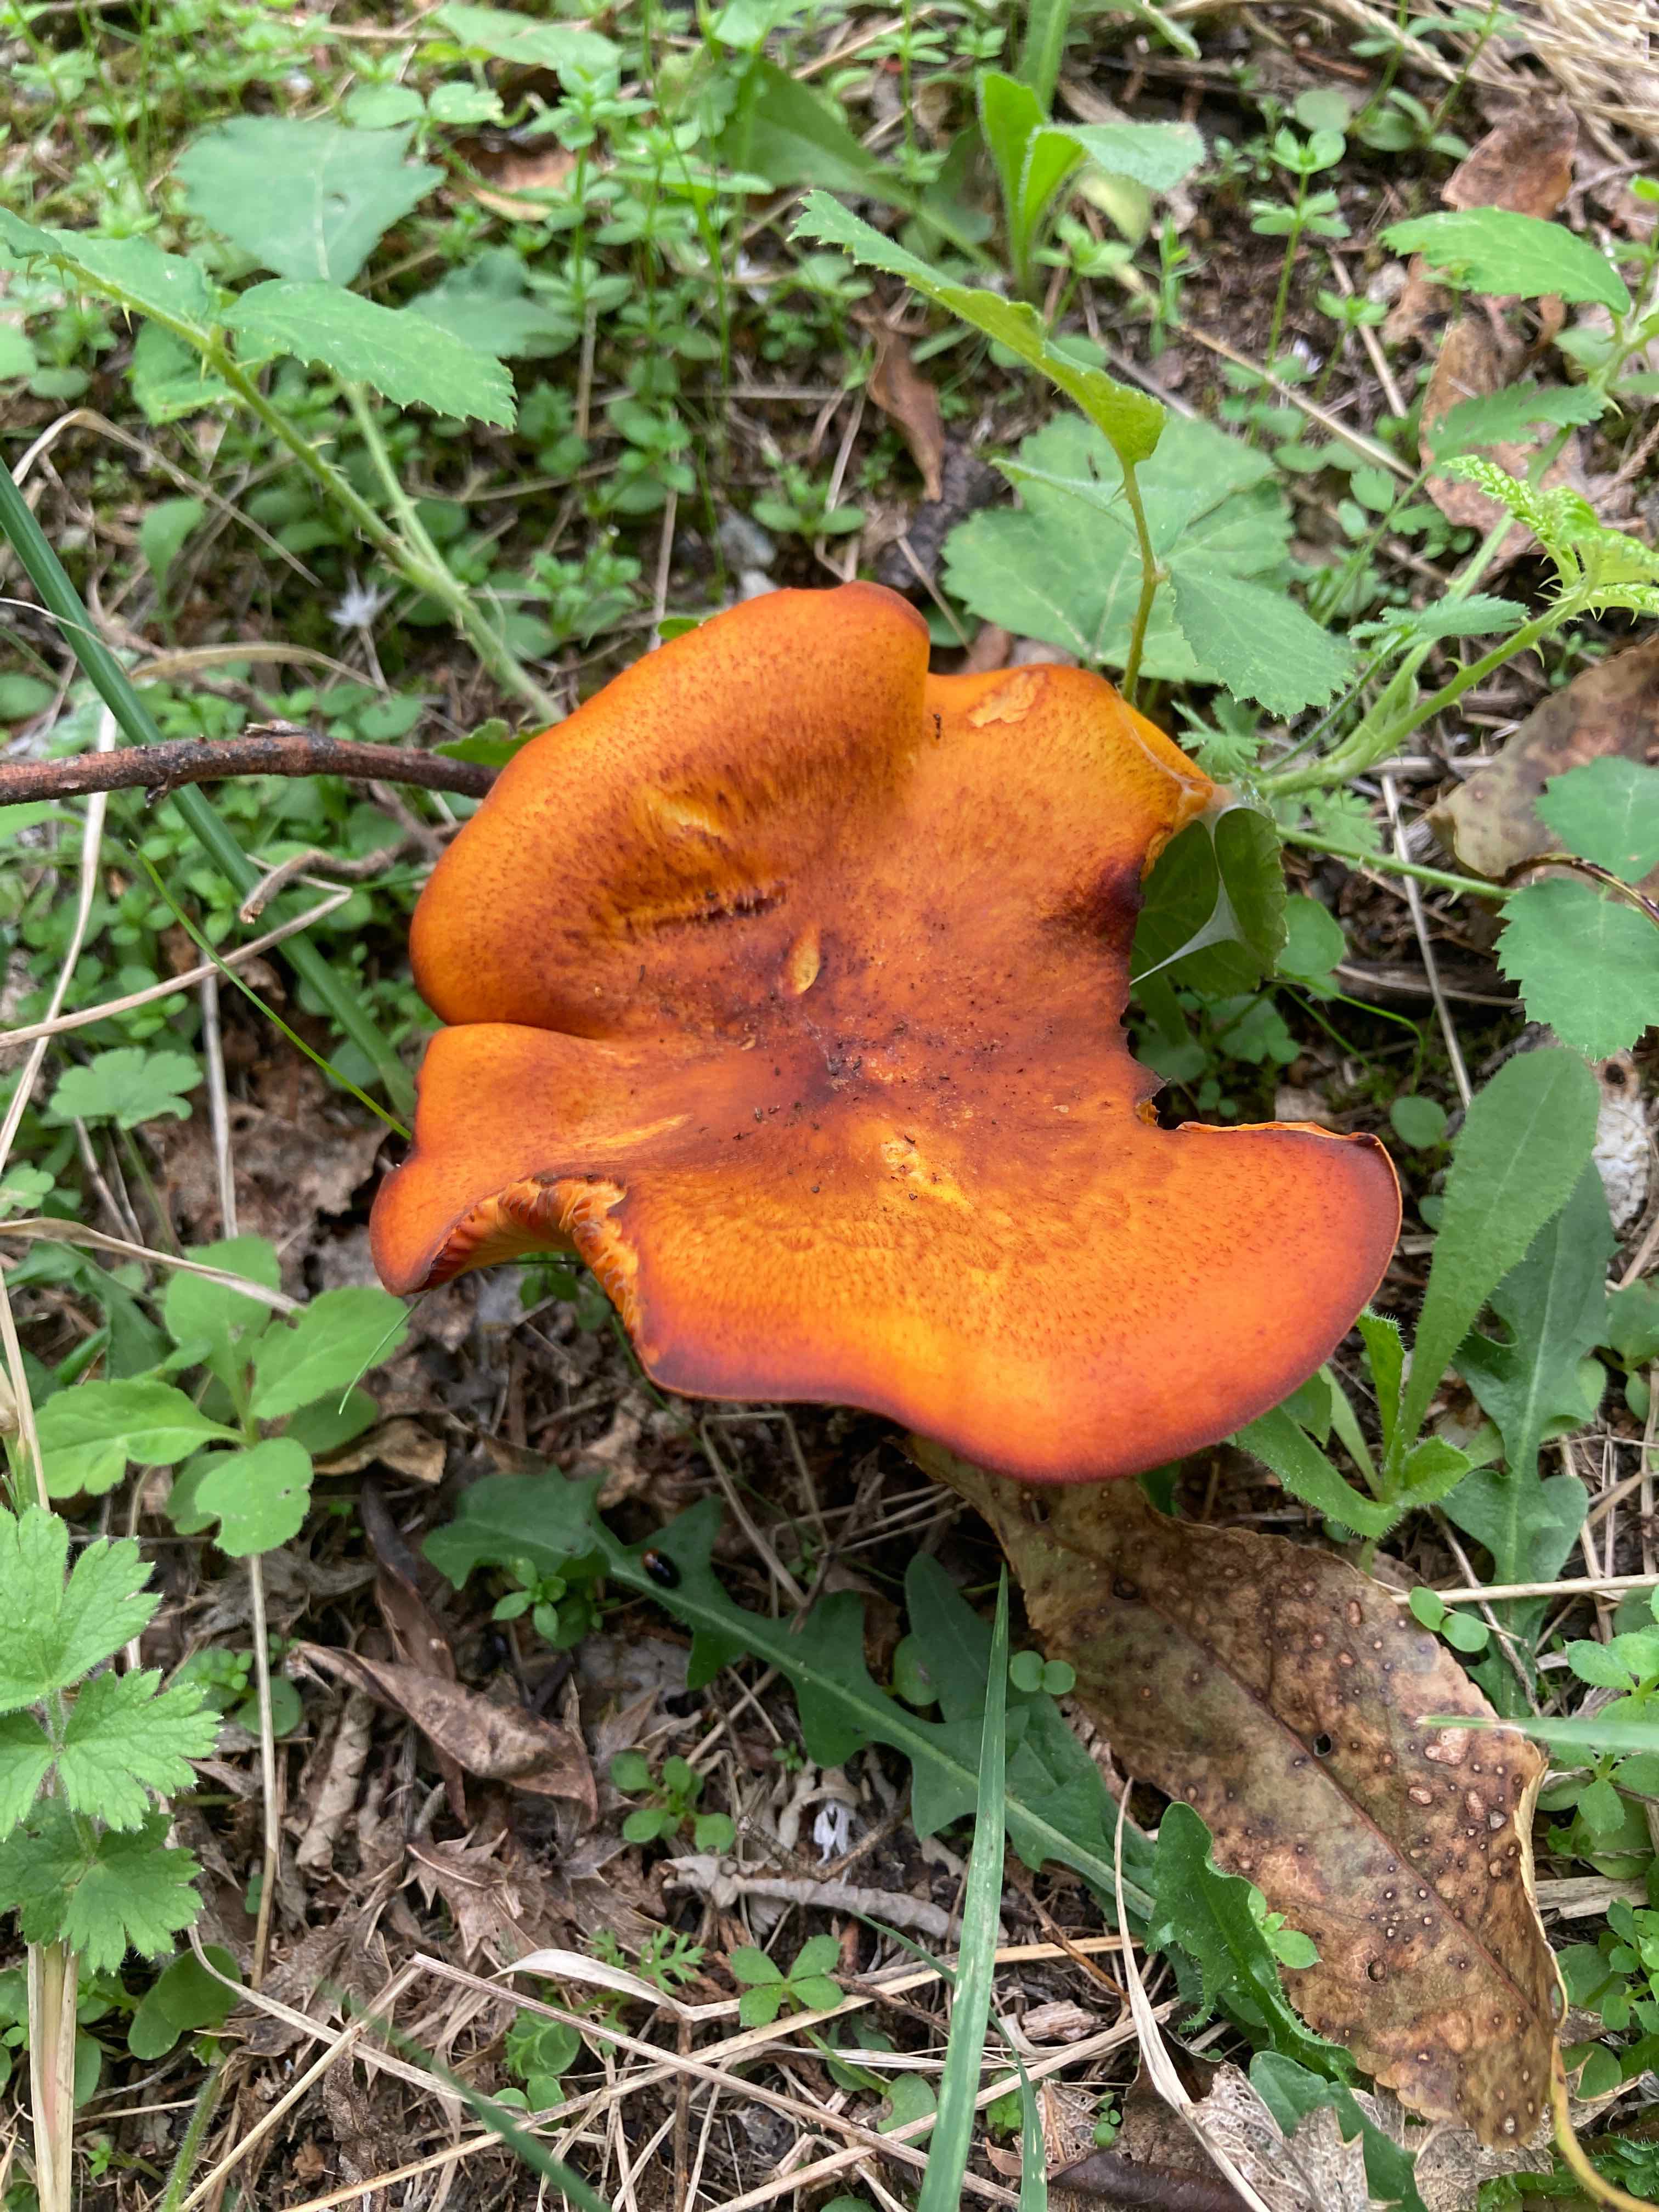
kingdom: Fungi
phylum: Basidiomycota
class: Agaricomycetes
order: Agaricales
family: Omphalotaceae
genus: Omphalotus
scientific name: Omphalotus olearius
